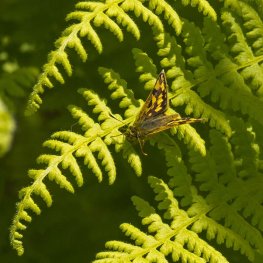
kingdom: Animalia
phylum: Arthropoda
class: Insecta
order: Lepidoptera
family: Hesperiidae
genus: Carterocephalus
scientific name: Carterocephalus palaemon
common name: Chequered Skipper
